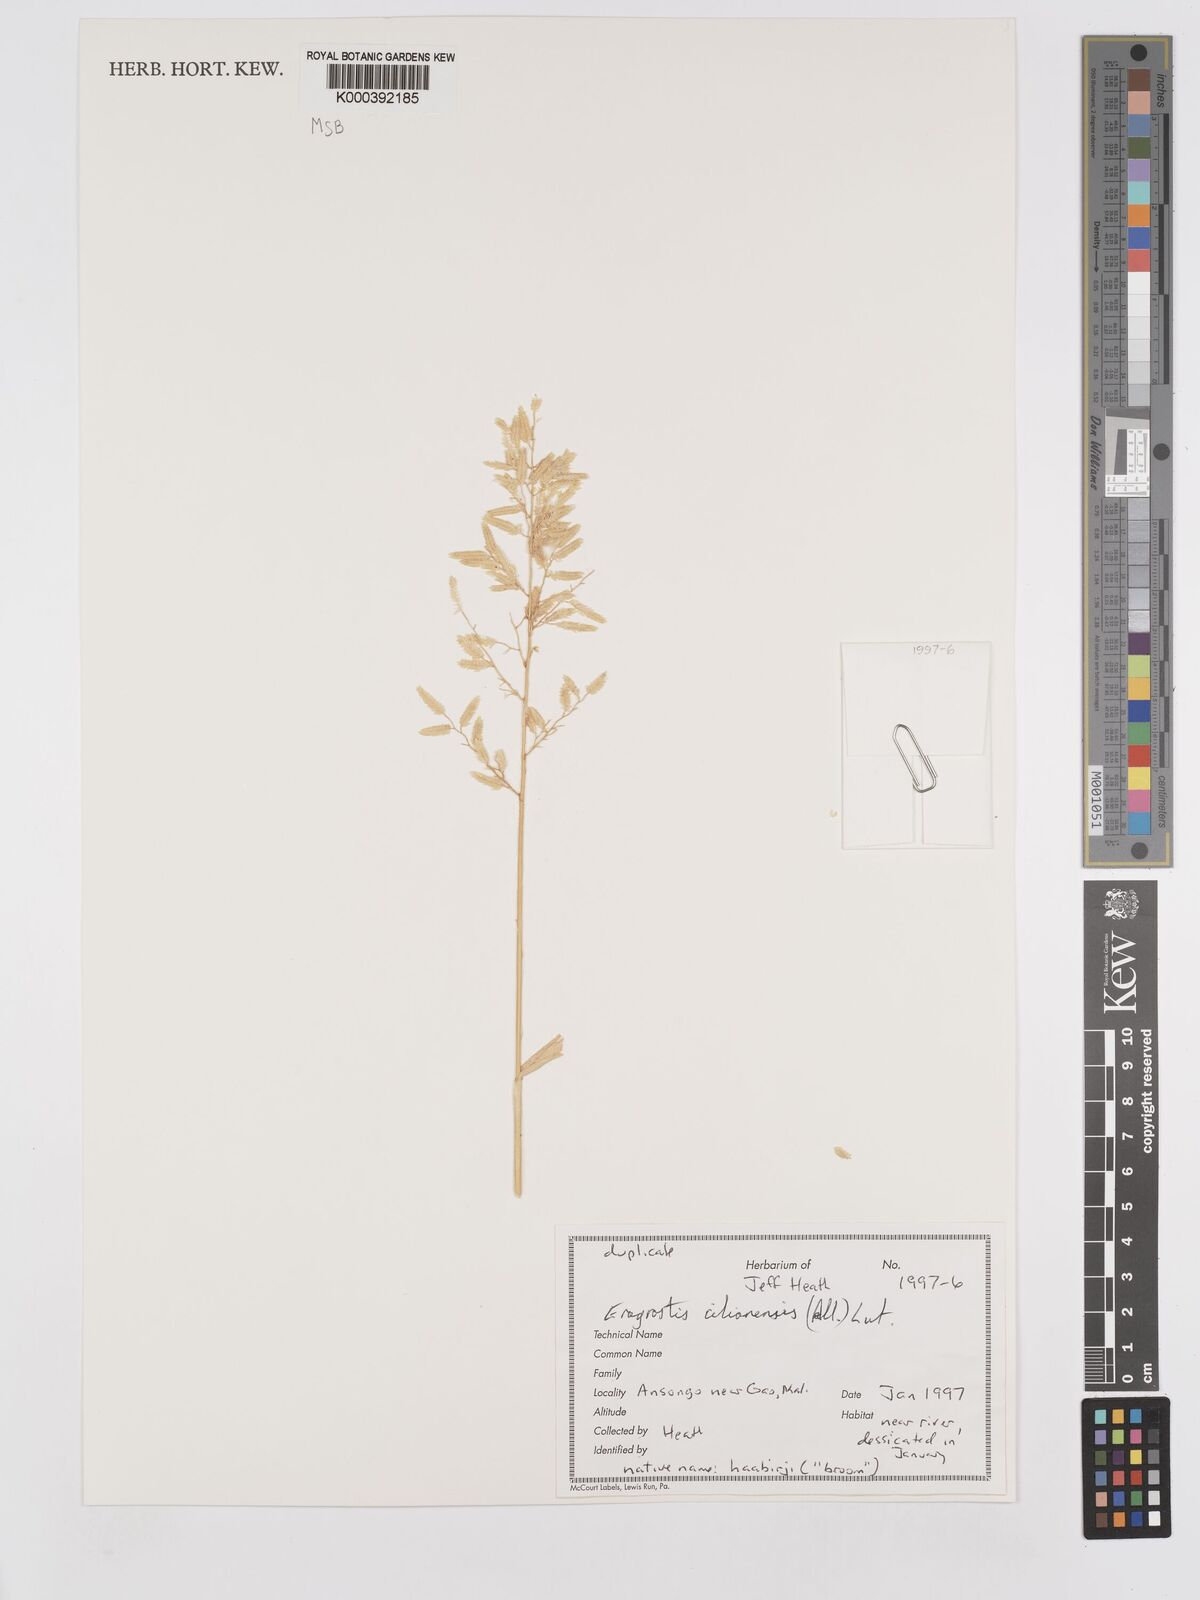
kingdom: Plantae
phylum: Tracheophyta
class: Liliopsida
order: Poales
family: Poaceae
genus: Eragrostis
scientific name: Eragrostis cilianensis
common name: Stinkgrass
